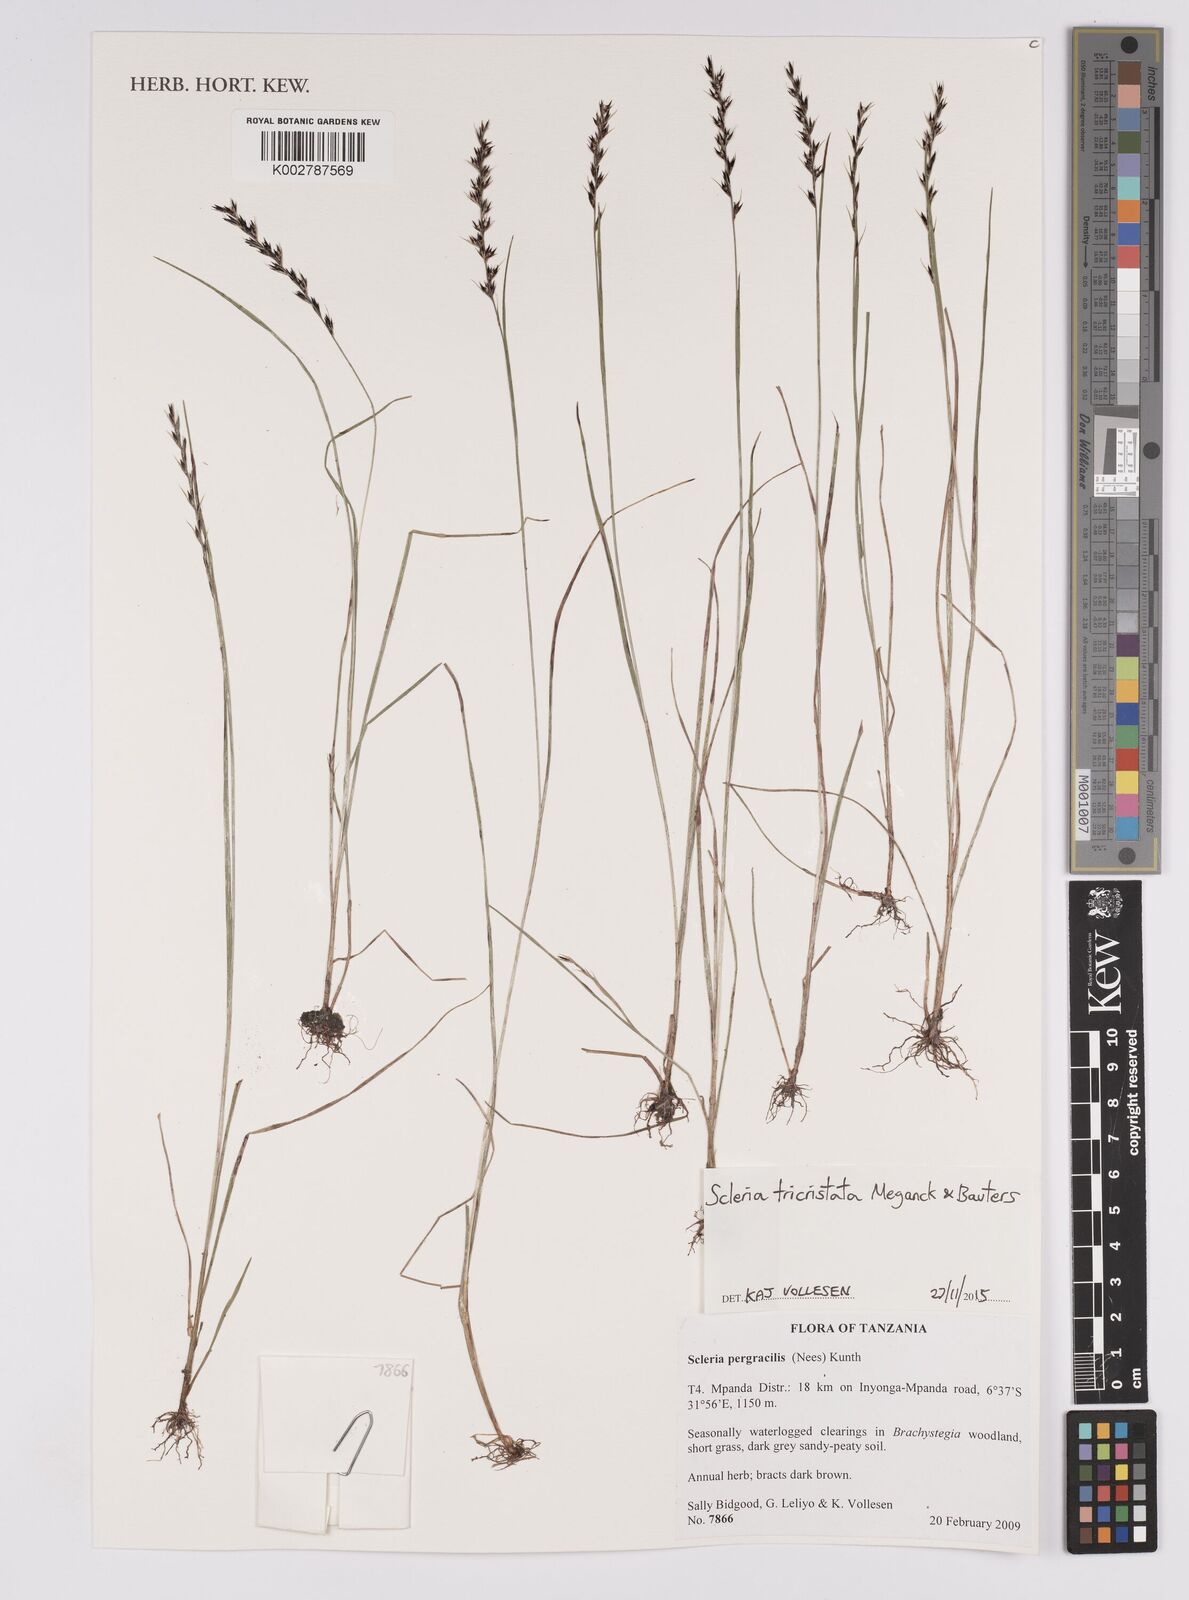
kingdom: Plantae
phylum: Tracheophyta
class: Liliopsida
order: Poales
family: Cyperaceae
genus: Scleria
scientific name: Scleria tricristata
